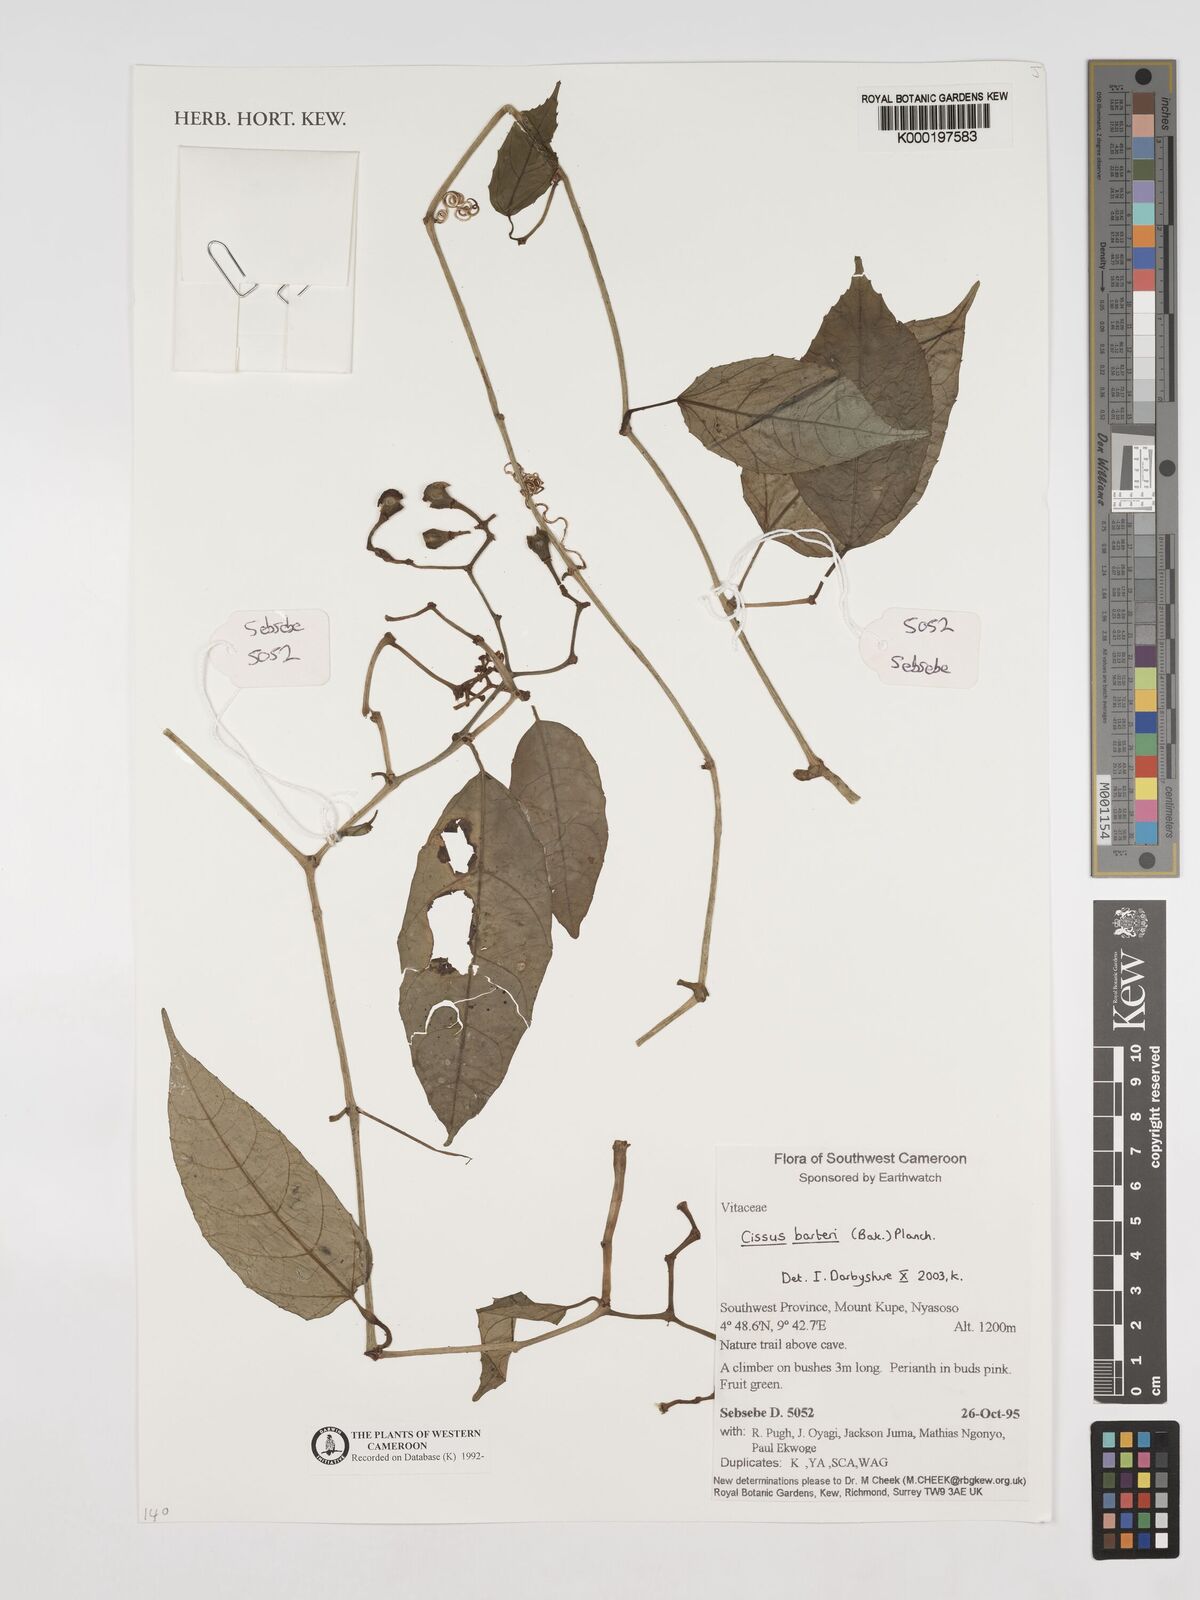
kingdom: Plantae
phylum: Tracheophyta
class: Magnoliopsida
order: Vitales
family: Vitaceae
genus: Cissus
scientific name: Cissus barteri
